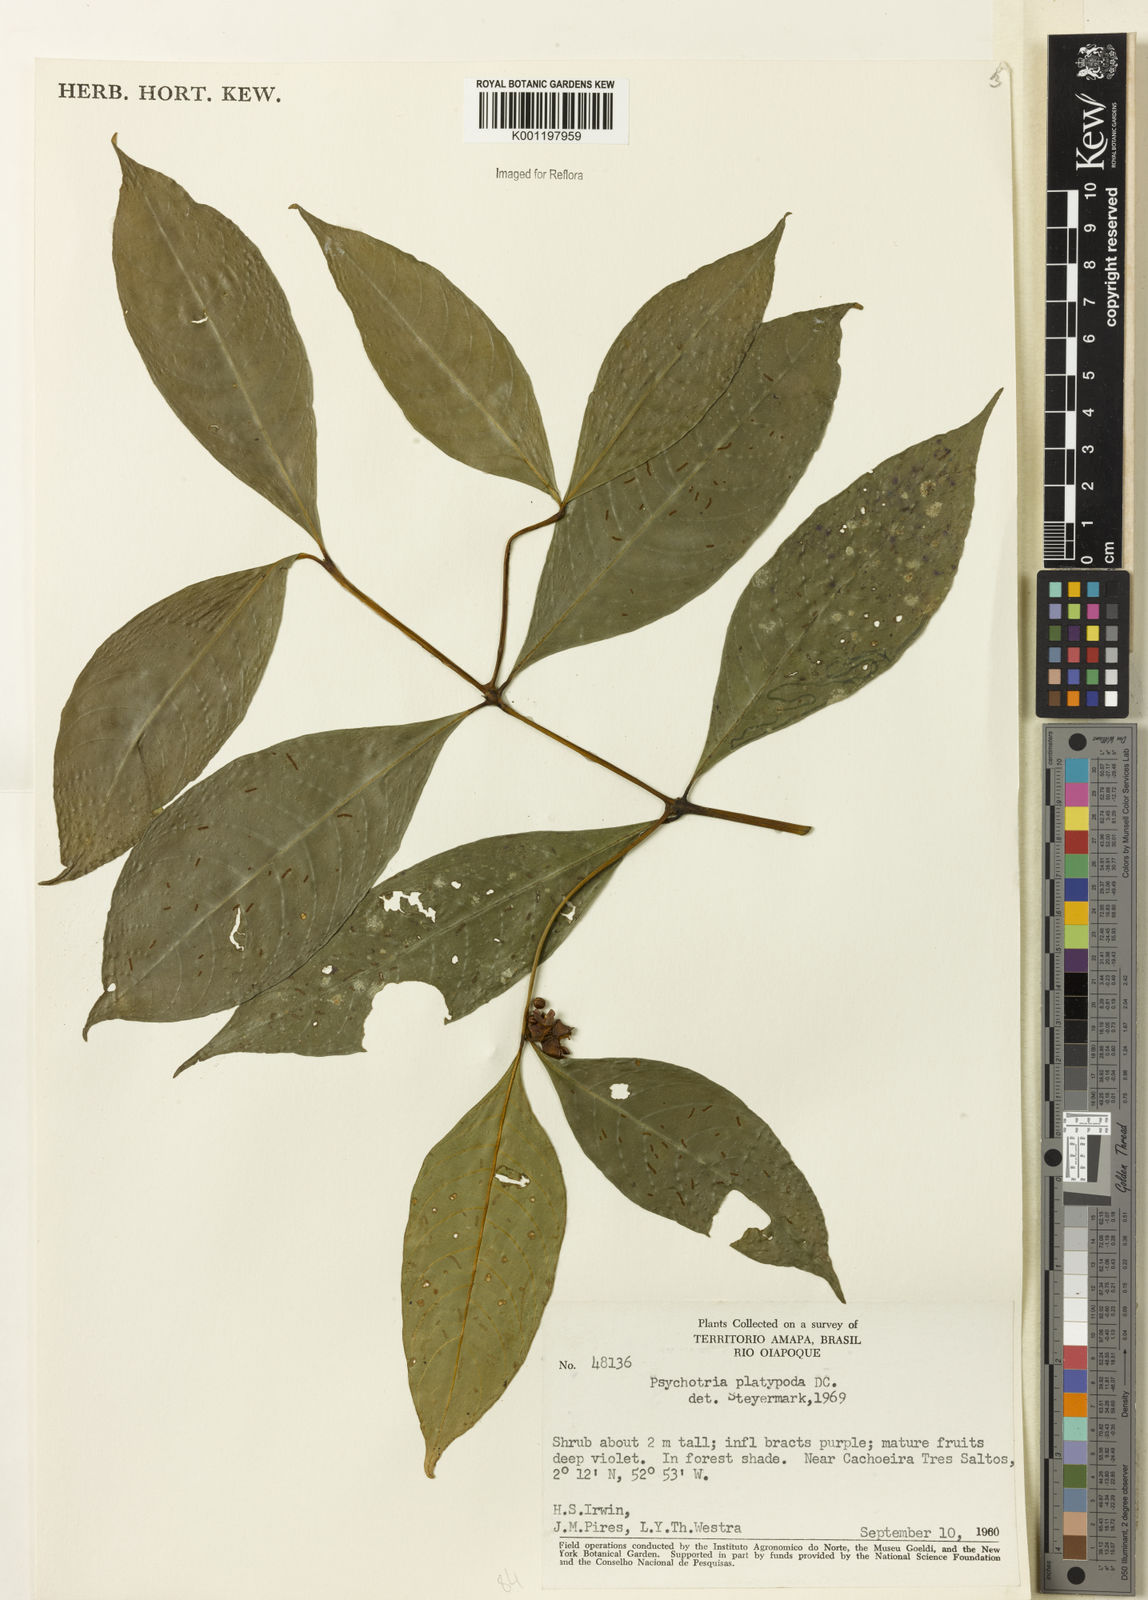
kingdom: Plantae
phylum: Tracheophyta
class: Magnoliopsida
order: Gentianales
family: Rubiaceae
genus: Palicourea
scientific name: Palicourea dichotoma
